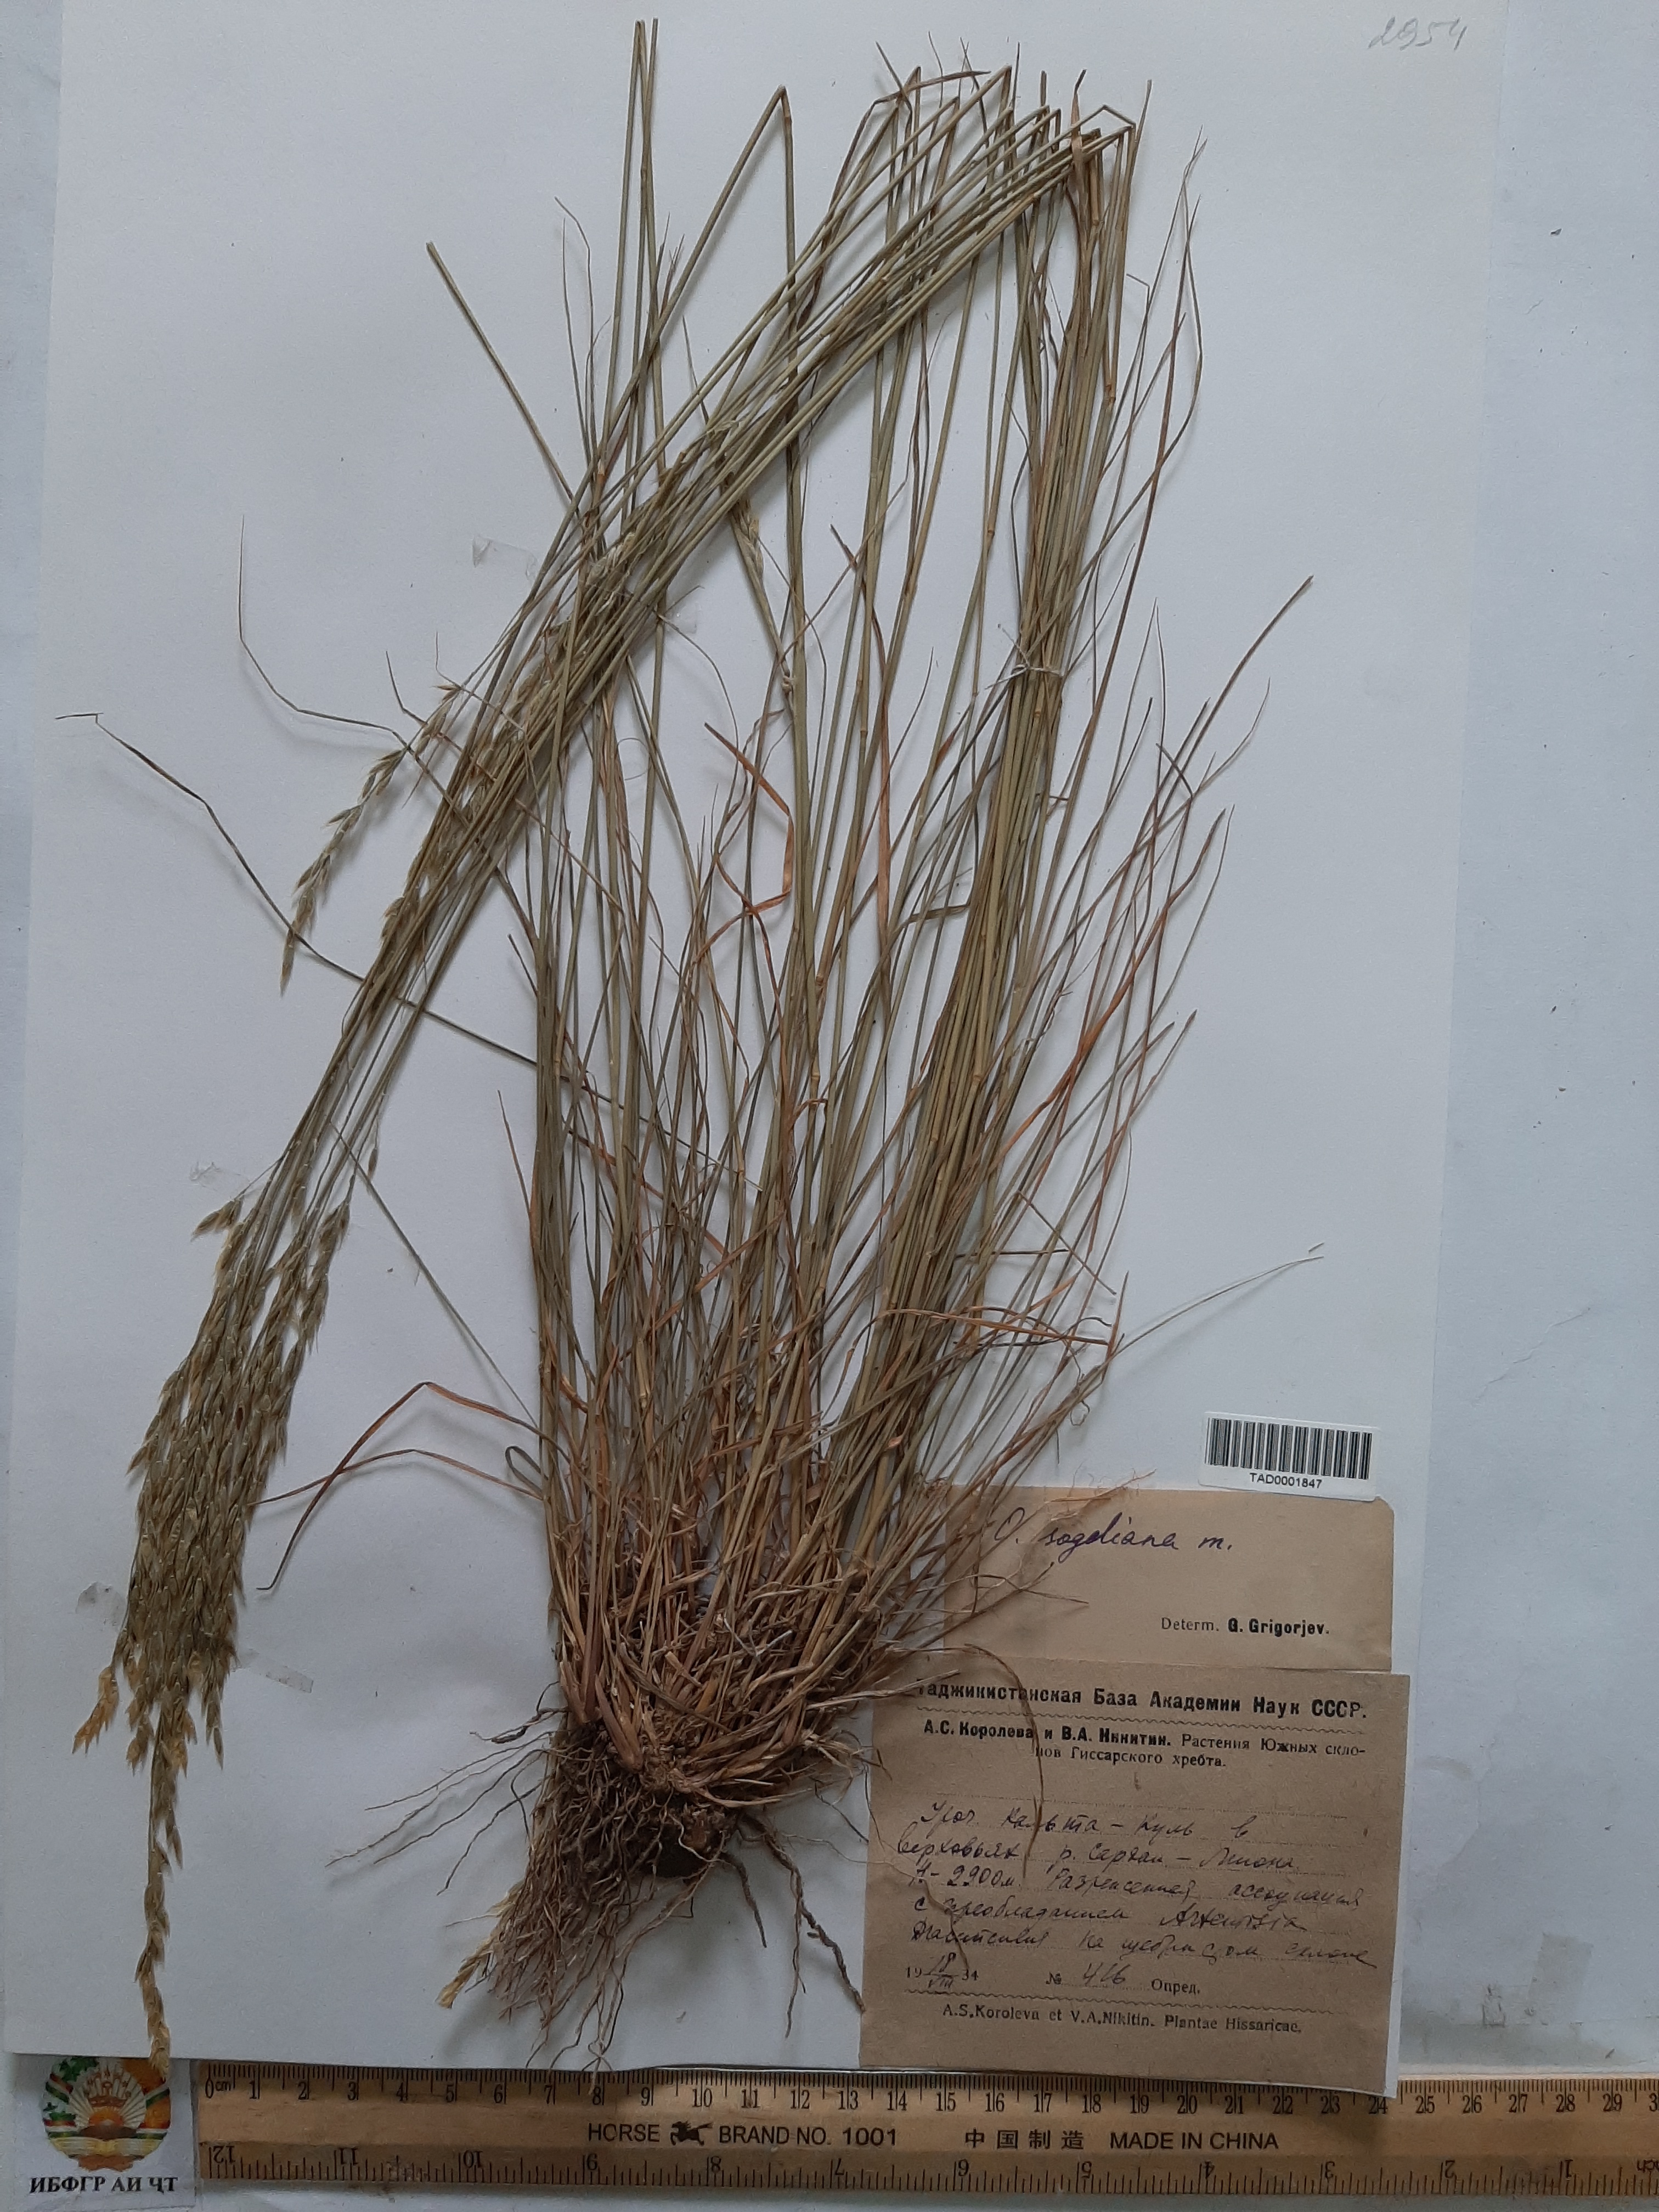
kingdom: Plantae
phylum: Tracheophyta
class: Liliopsida
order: Poales
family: Poaceae
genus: Piptatherum
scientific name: Piptatherum sogdianum
